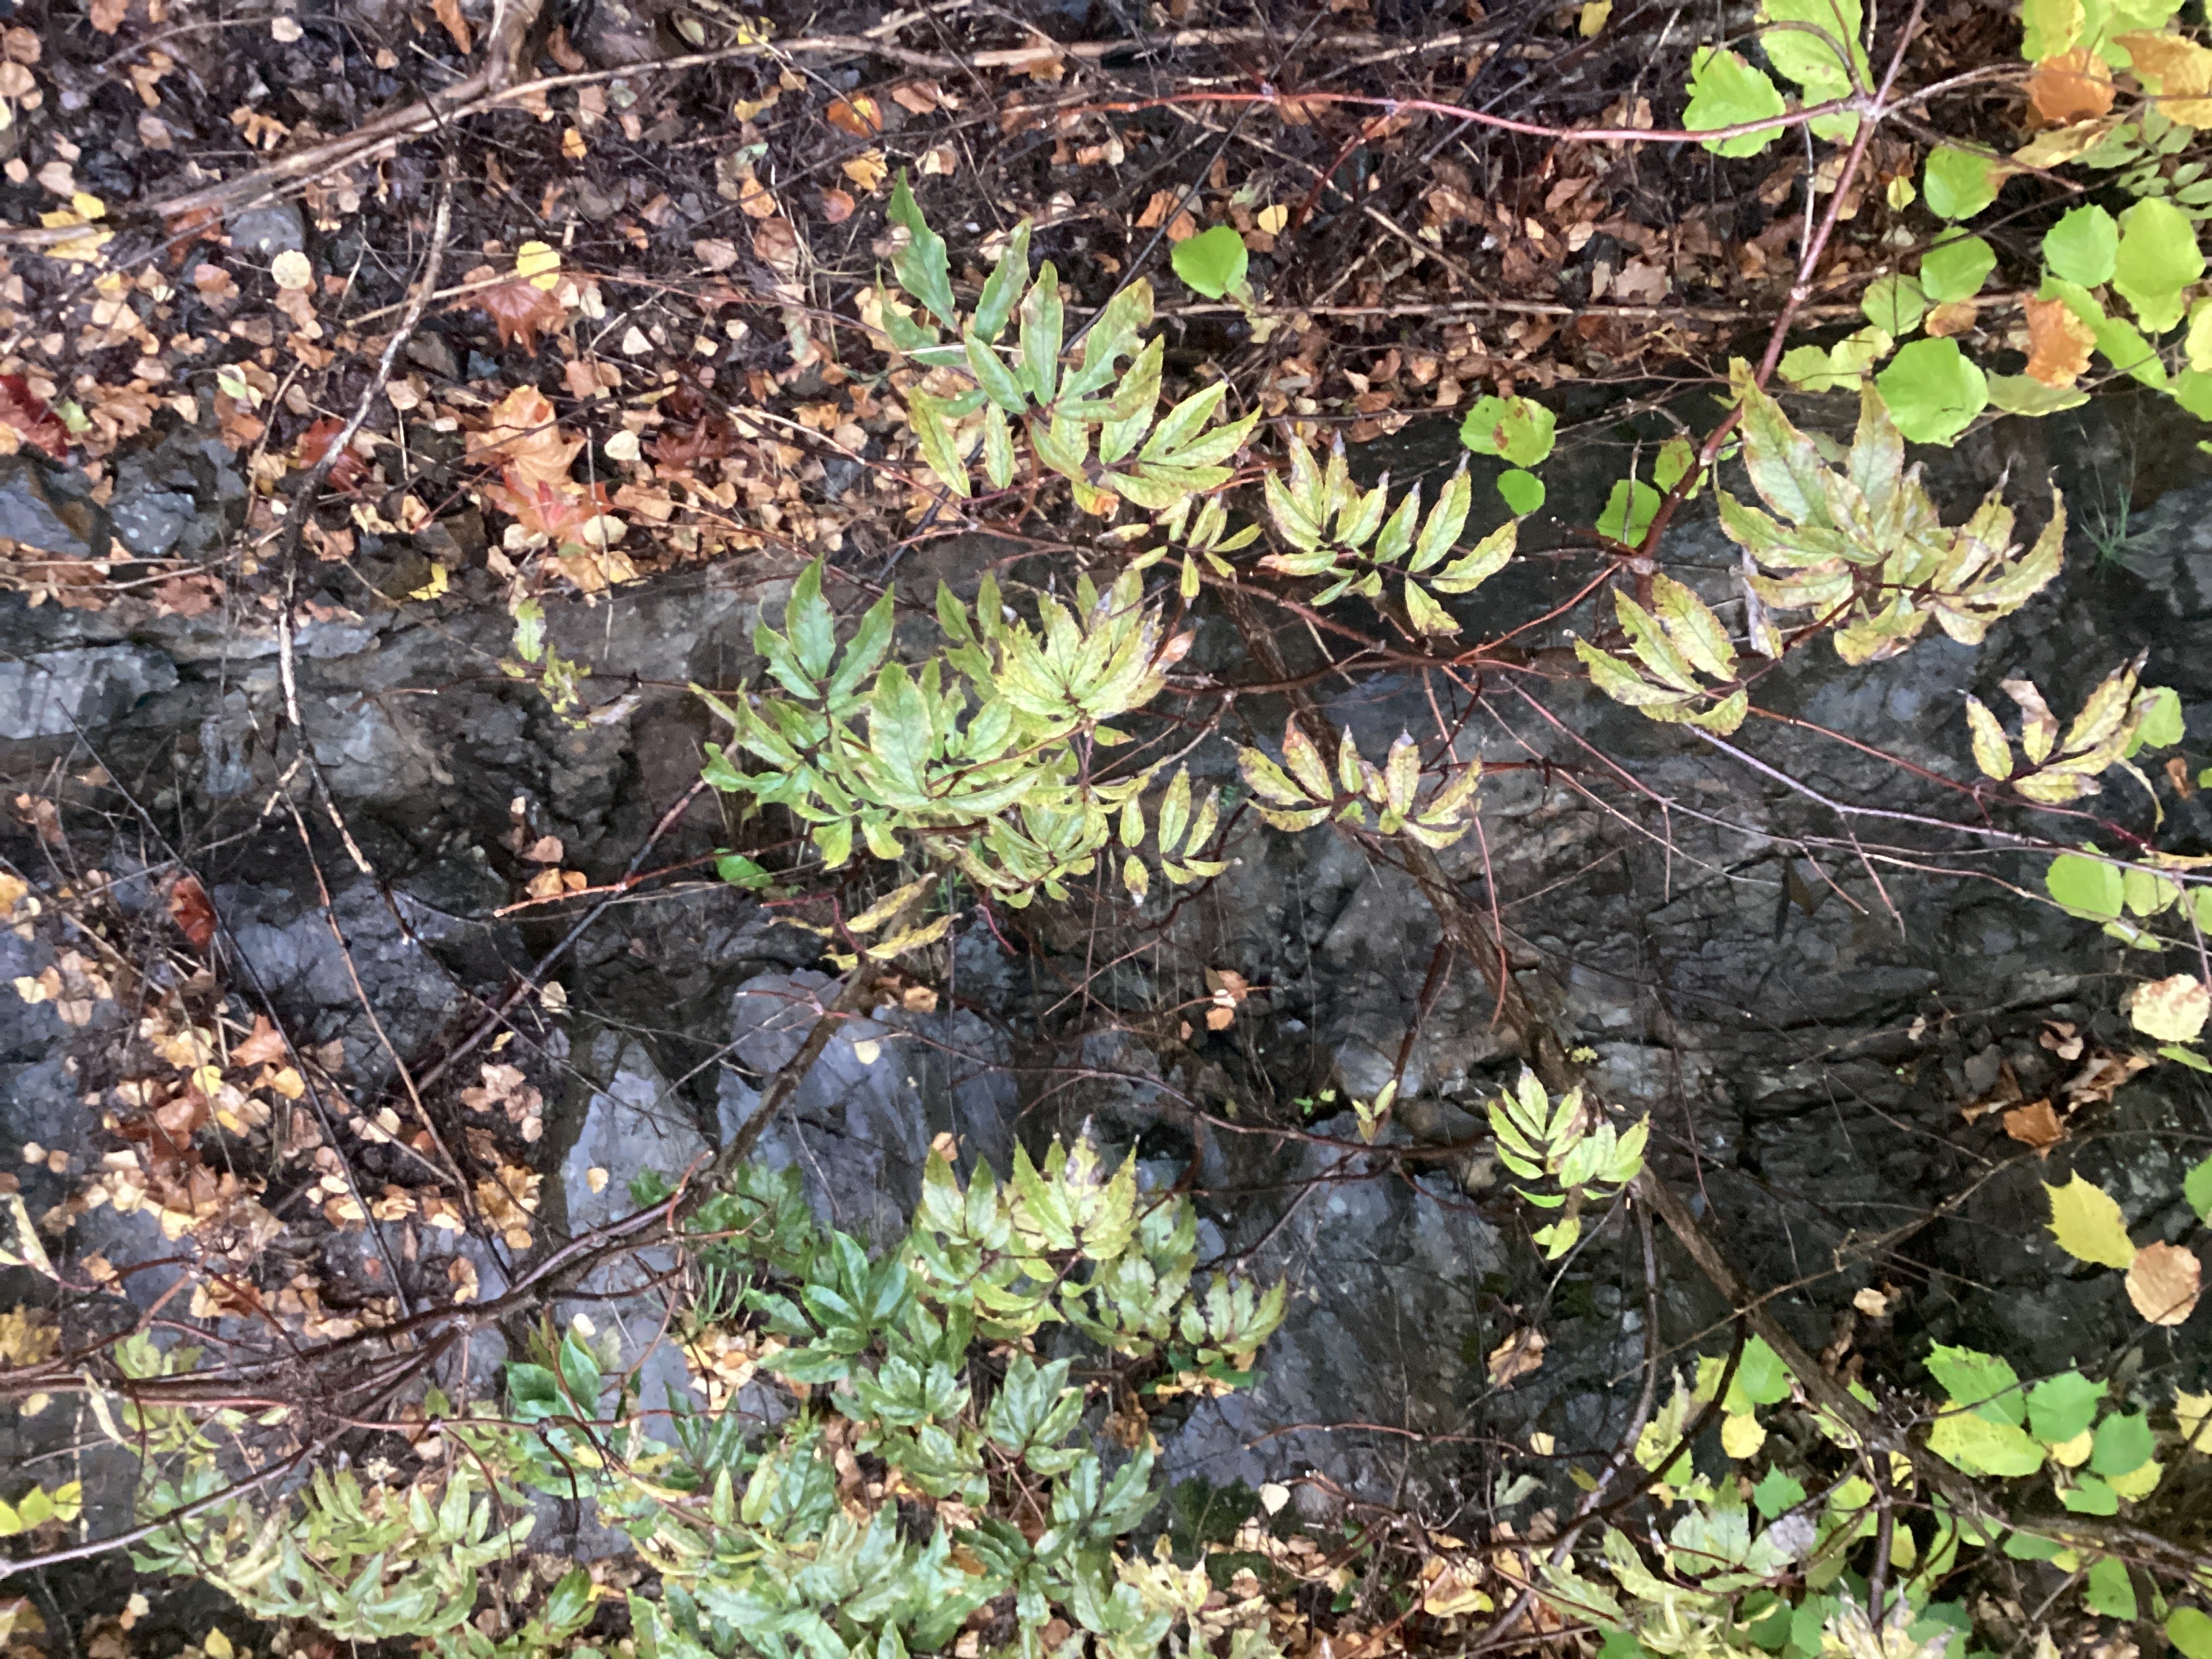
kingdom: Plantae
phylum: Tracheophyta
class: Magnoliopsida
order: Dipsacales
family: Viburnaceae
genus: Sambucus
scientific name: Sambucus racemosa
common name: rødhyll
